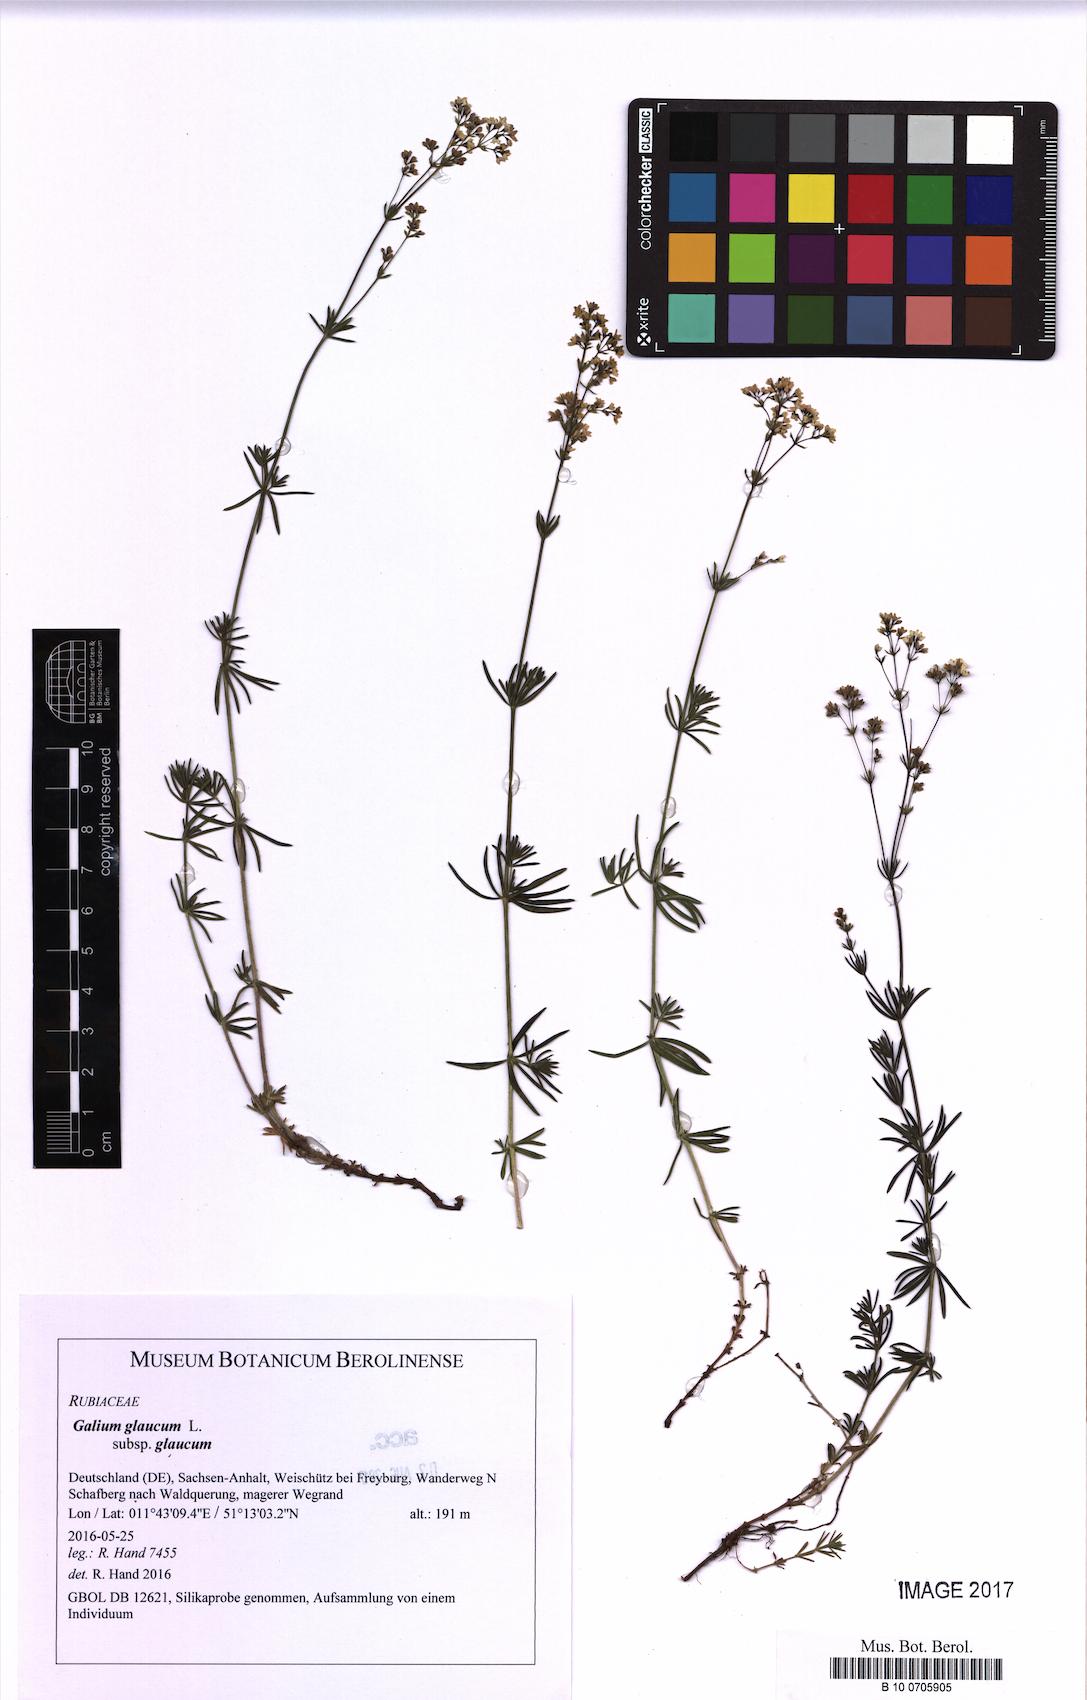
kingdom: Plantae
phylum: Tracheophyta
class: Magnoliopsida
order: Gentianales
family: Rubiaceae
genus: Galium
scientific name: Galium glaucum
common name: Waxy bedstraw
